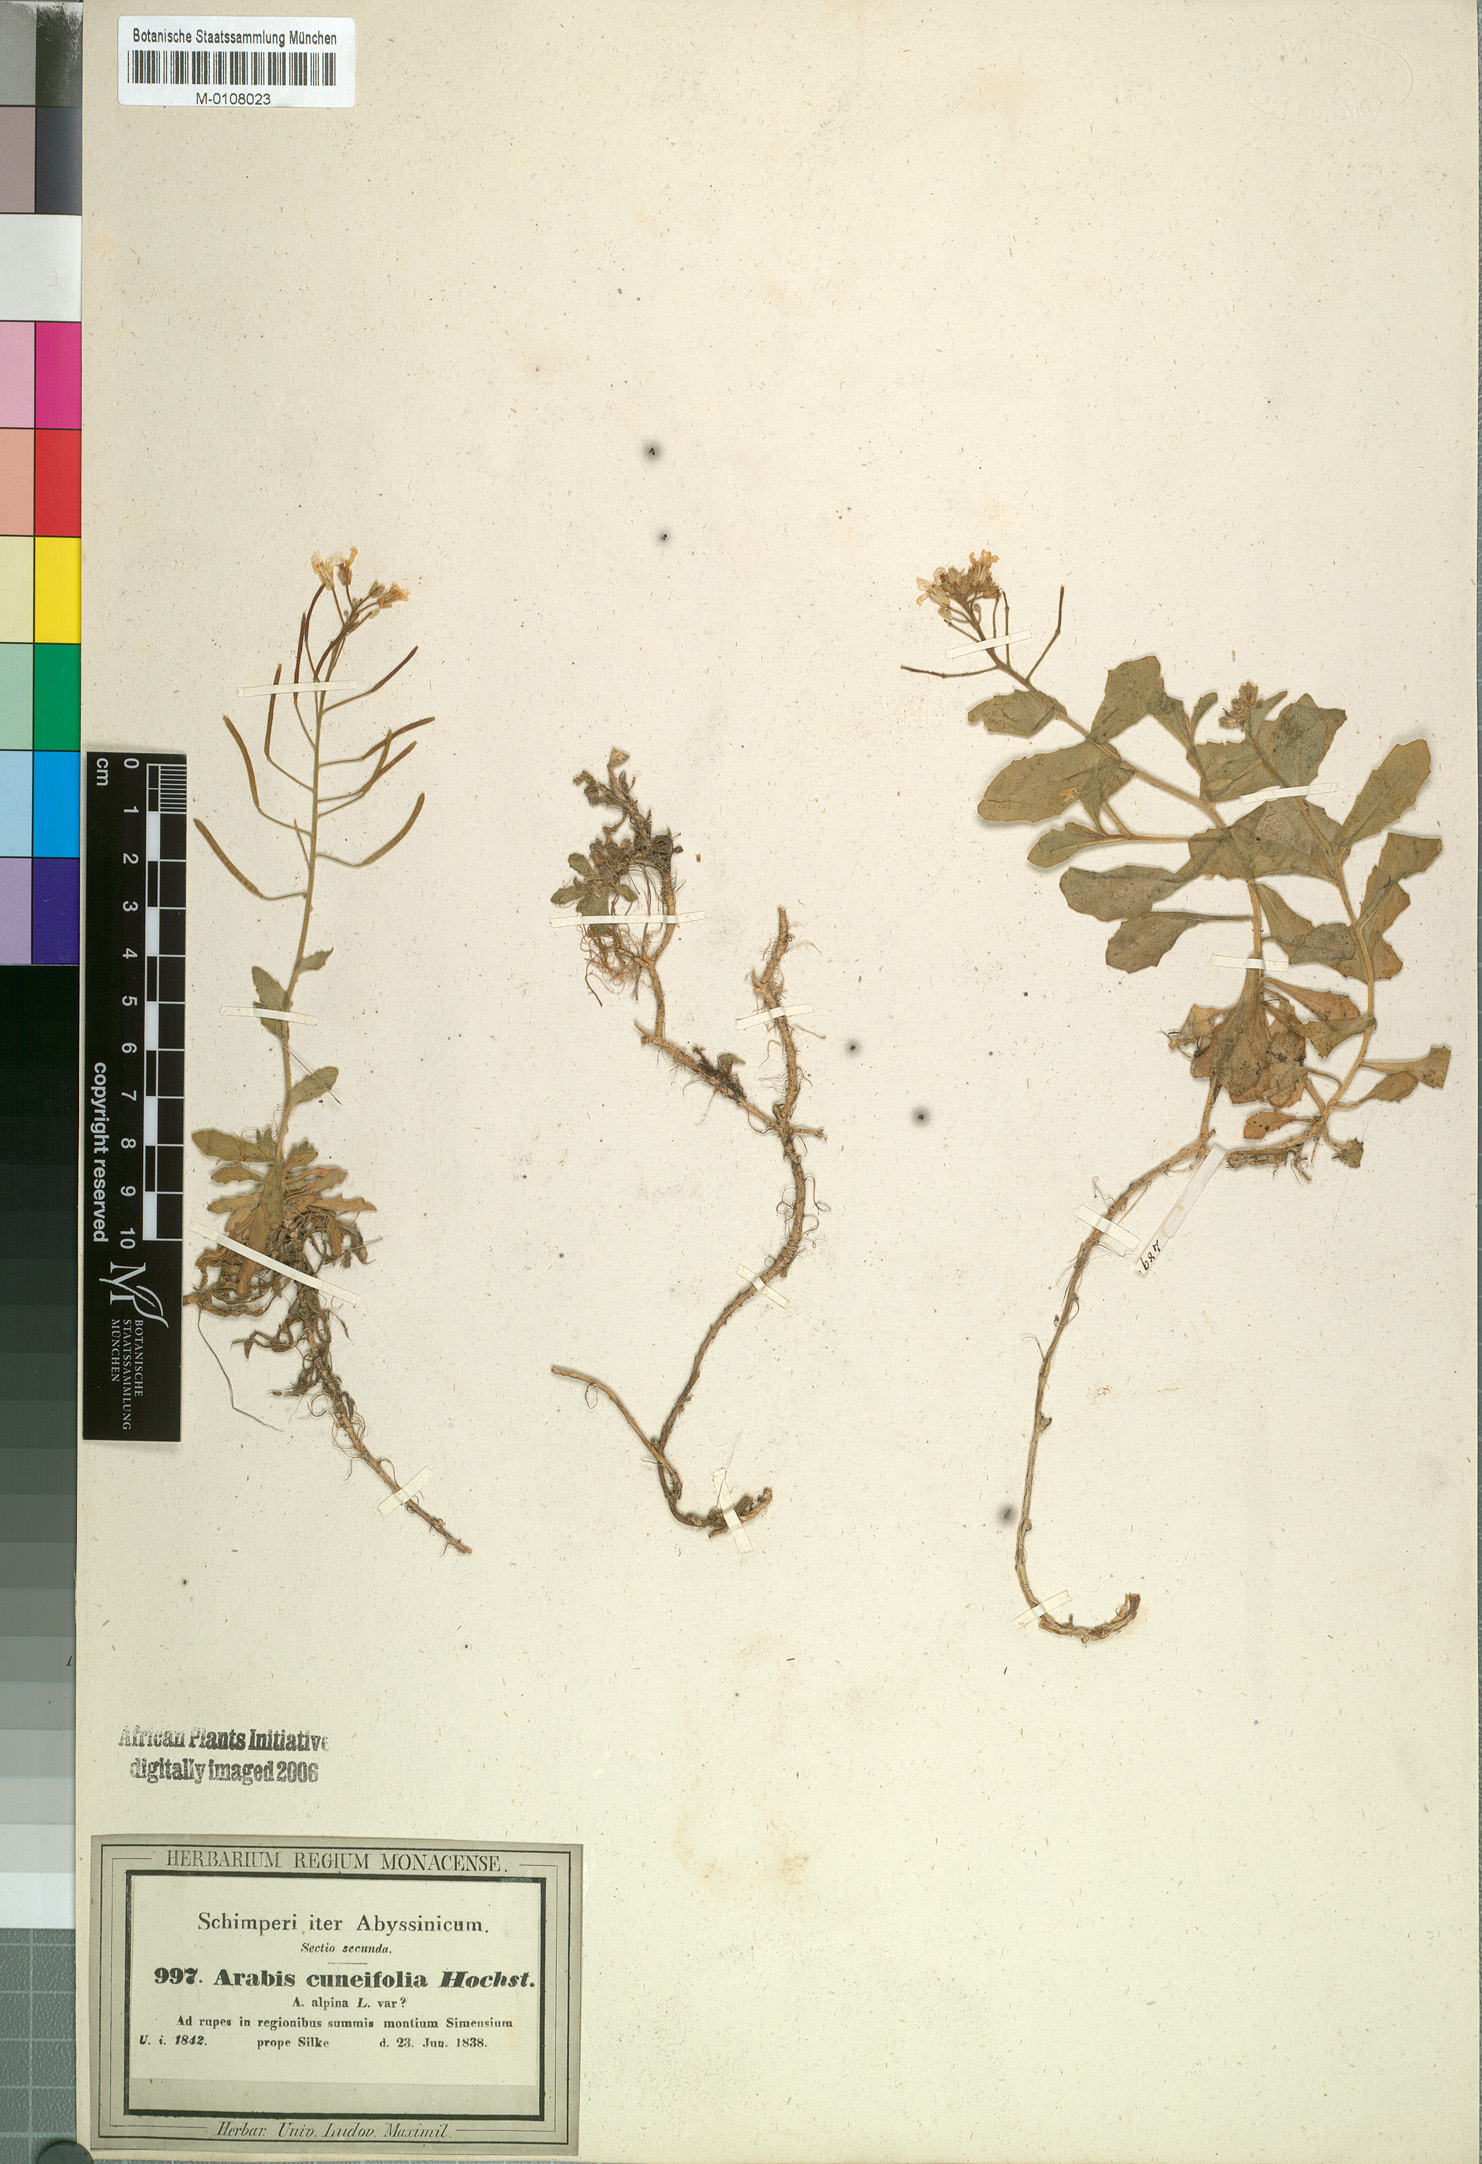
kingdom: Plantae
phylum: Tracheophyta
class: Magnoliopsida
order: Brassicales
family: Brassicaceae
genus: Arabis
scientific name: Arabis alpina
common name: Alpine rock-cress
